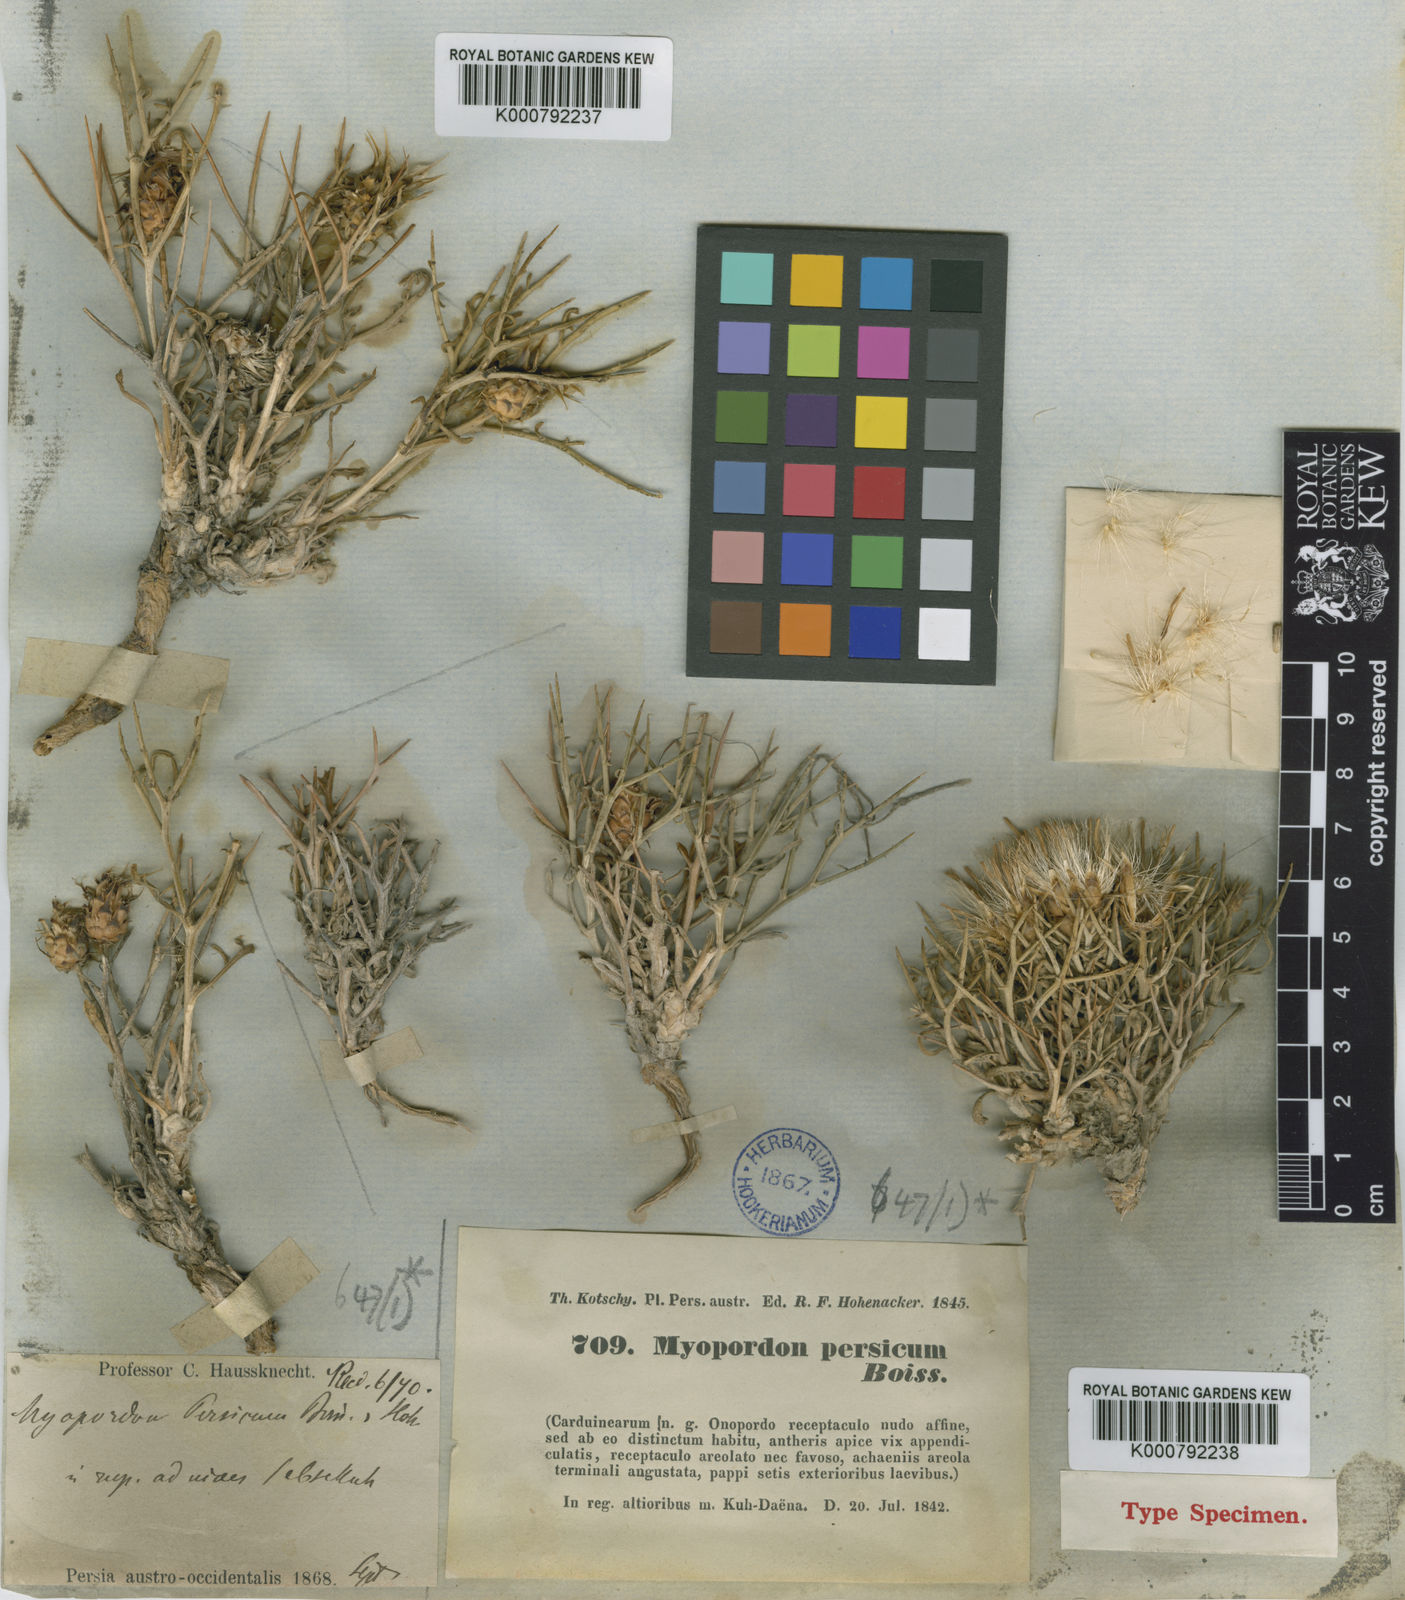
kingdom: Plantae
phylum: Tracheophyta
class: Magnoliopsida
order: Asterales
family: Asteraceae
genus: Myopordon
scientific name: Myopordon persicum
